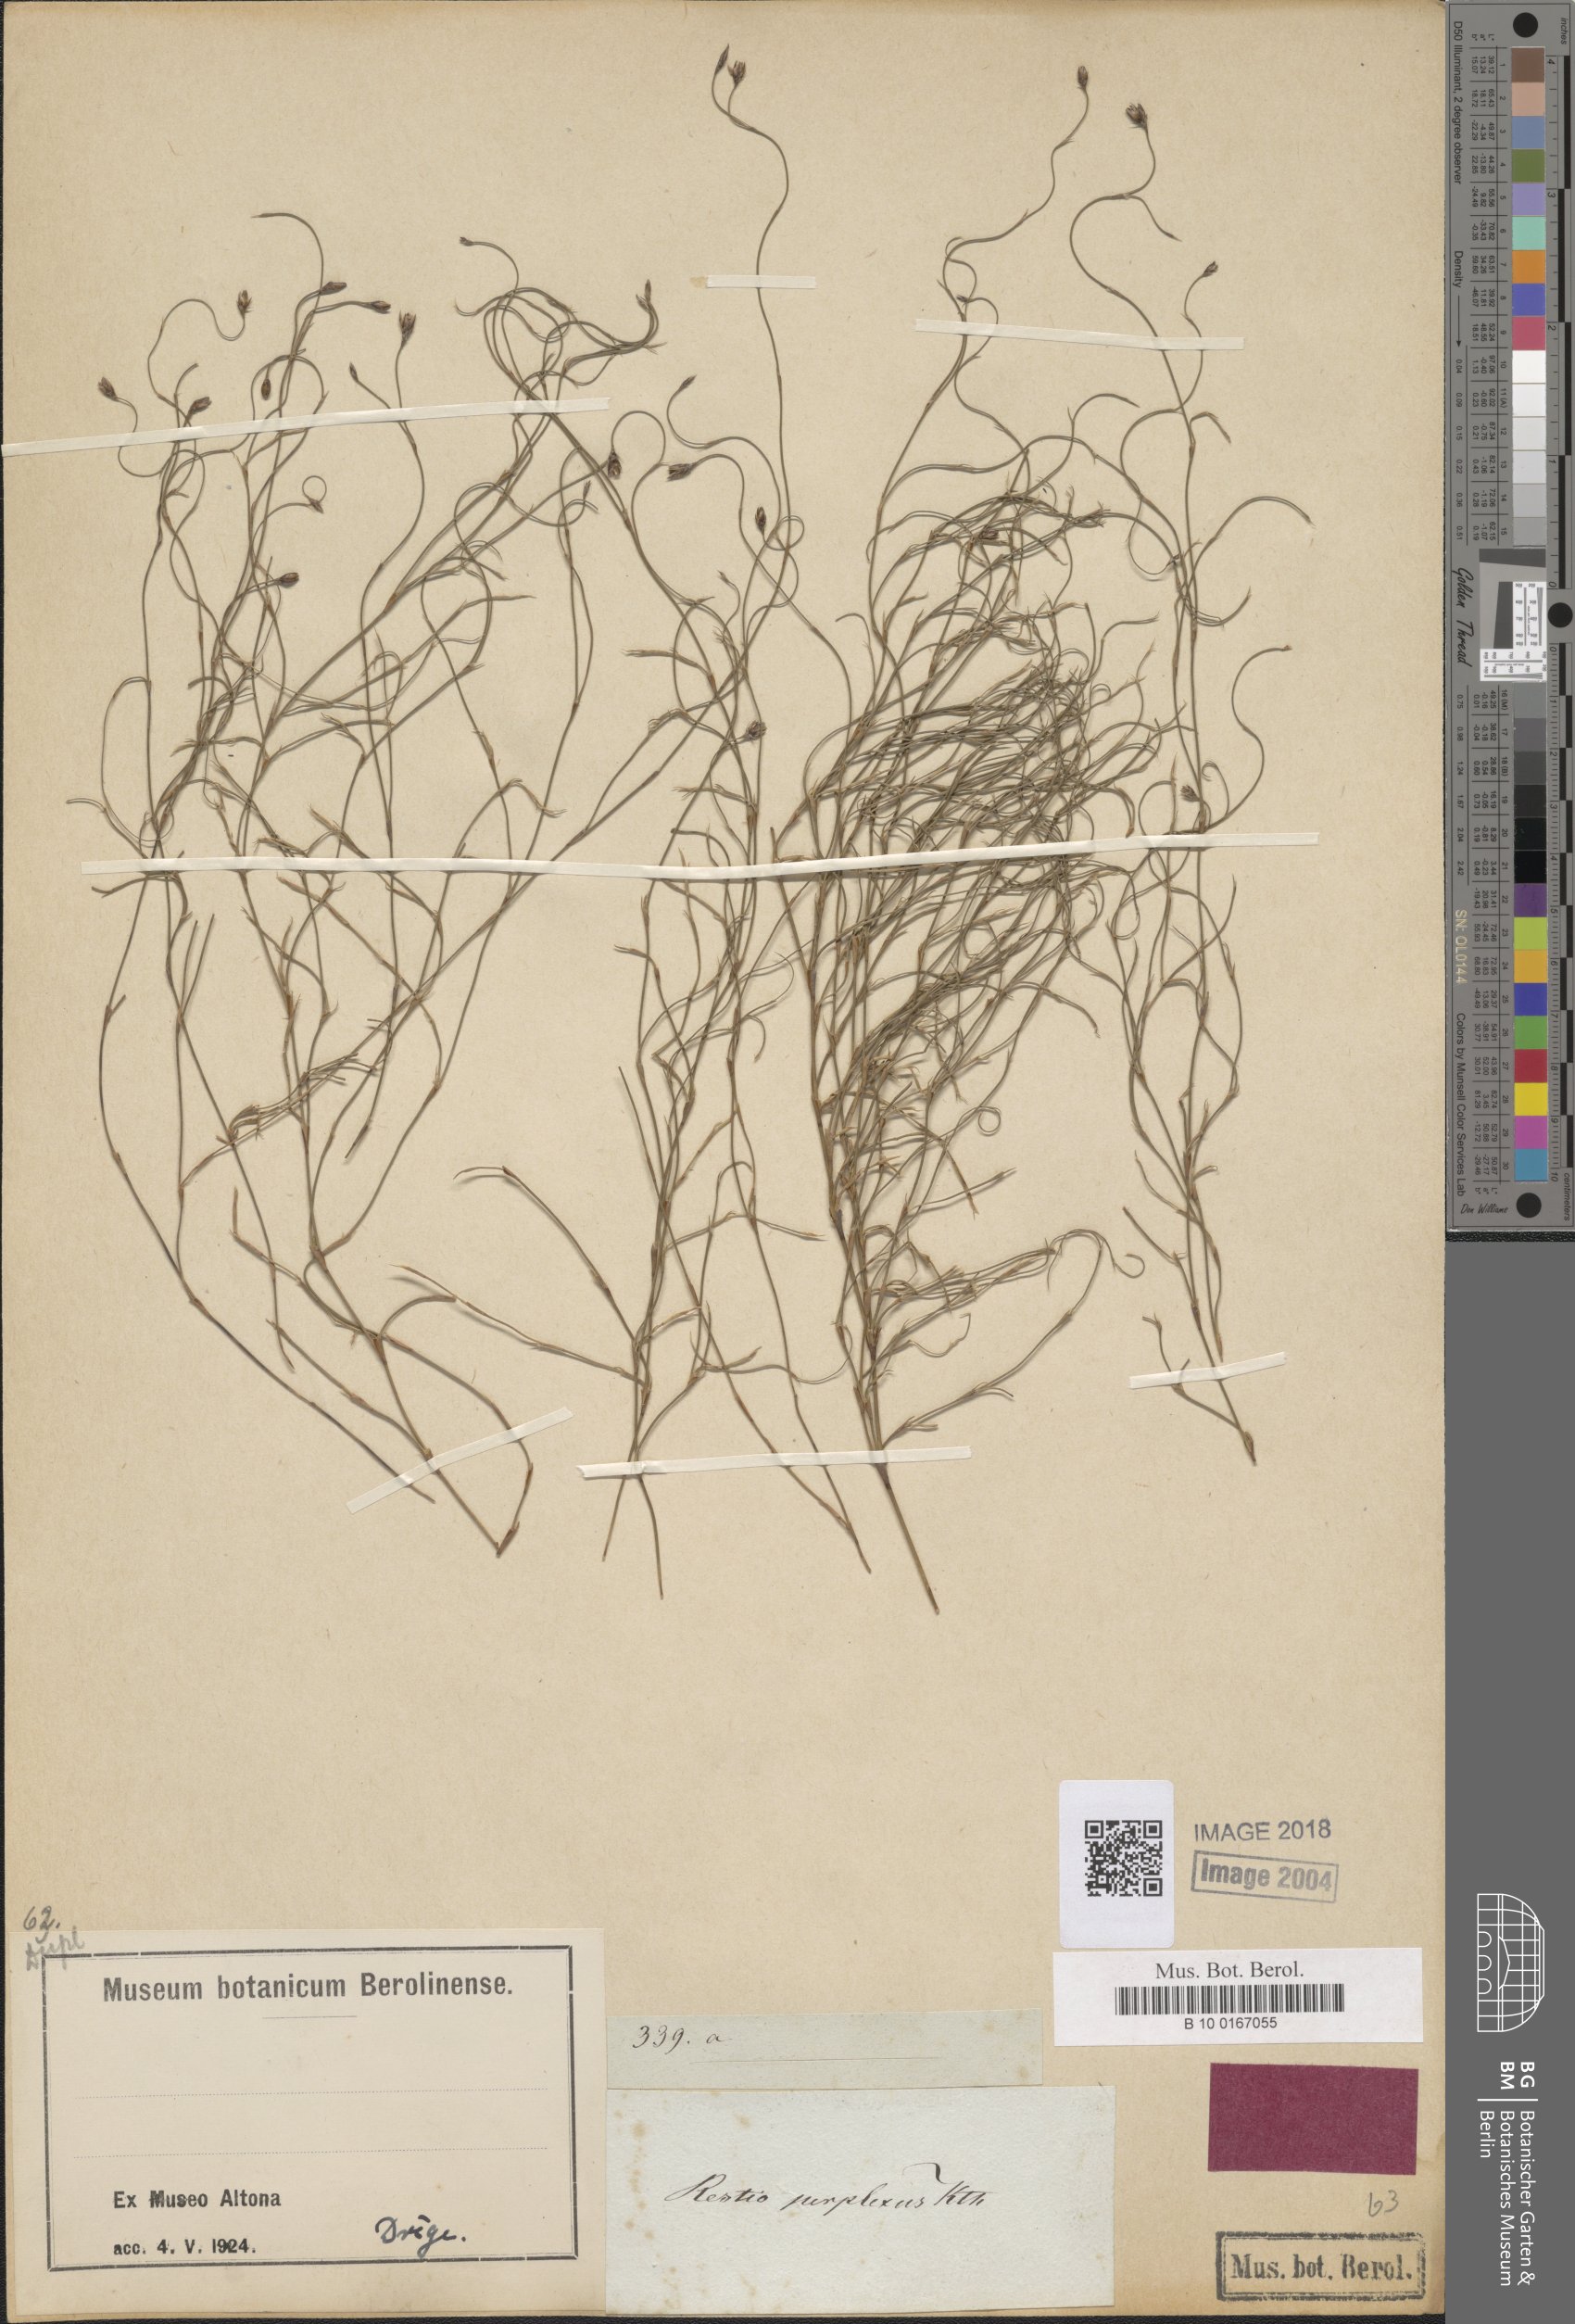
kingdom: Plantae
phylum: Tracheophyta
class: Liliopsida
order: Poales
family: Restionaceae
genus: Restio
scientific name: Restio perplexus
